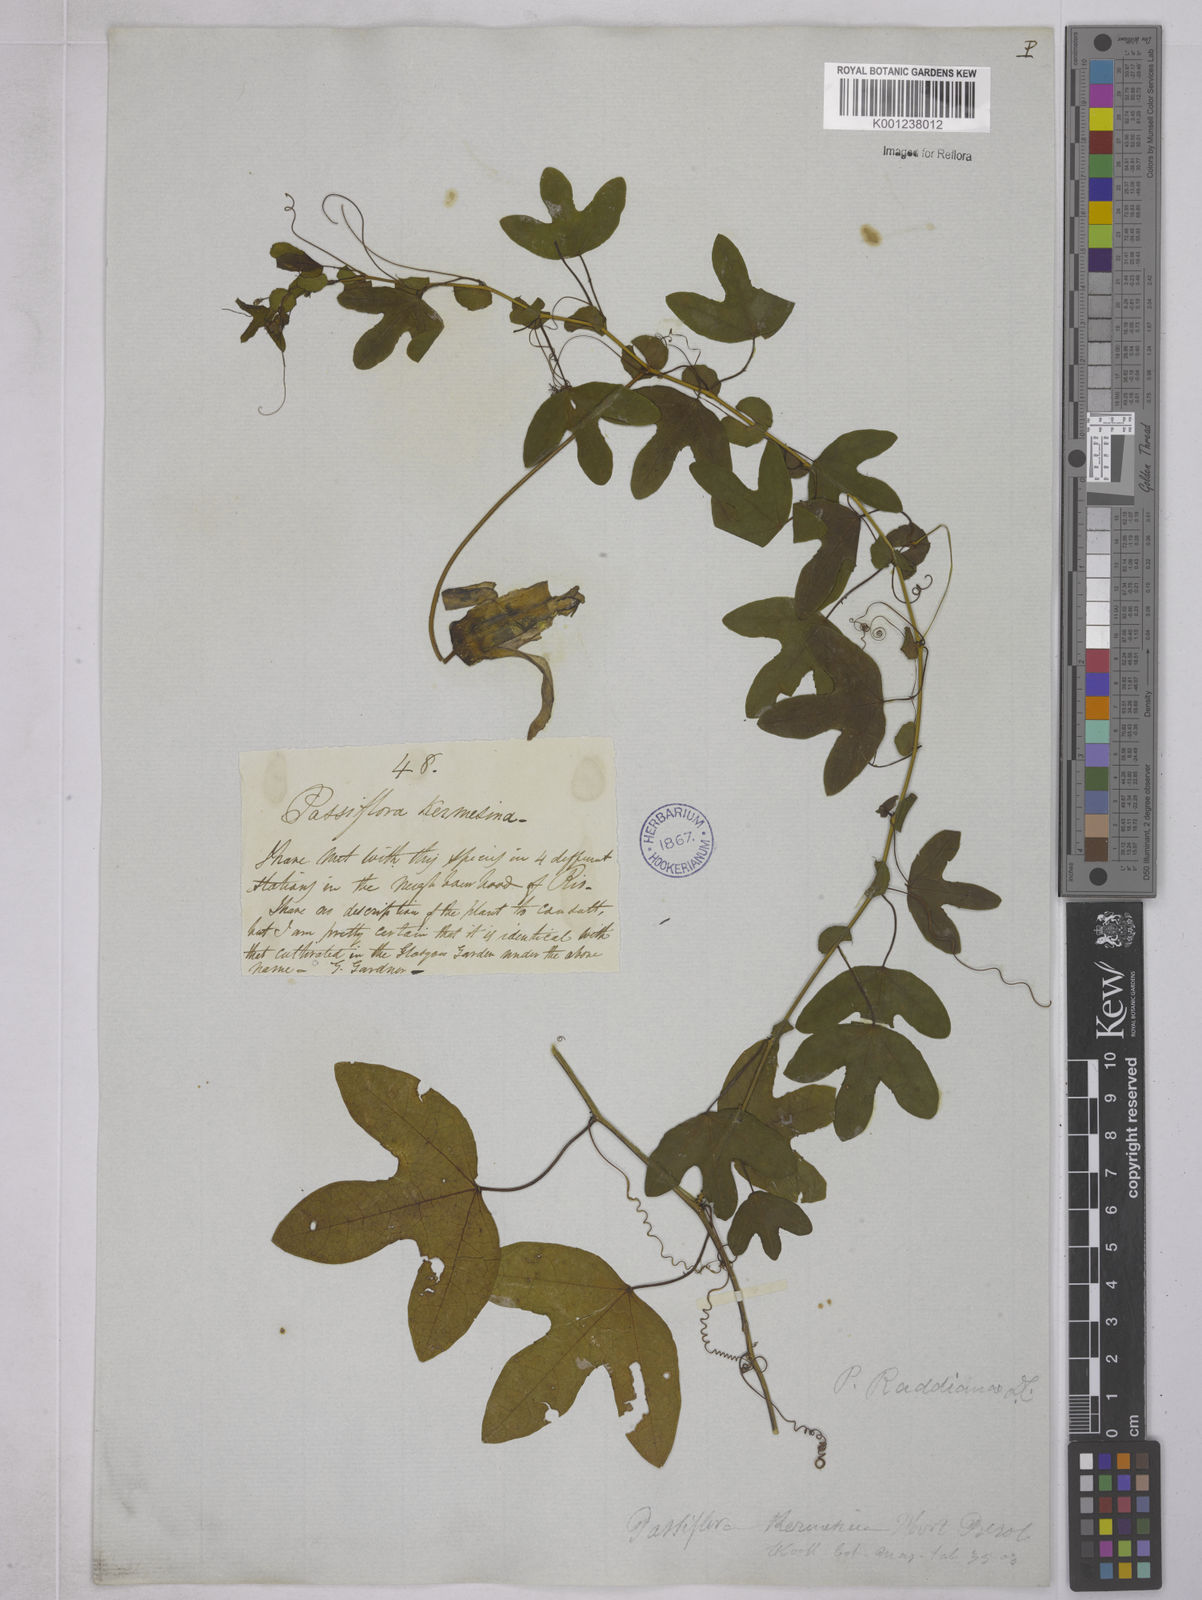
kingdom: Plantae
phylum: Tracheophyta
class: Magnoliopsida
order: Malpighiales
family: Passifloraceae
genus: Passiflora
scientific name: Passiflora kermesina
